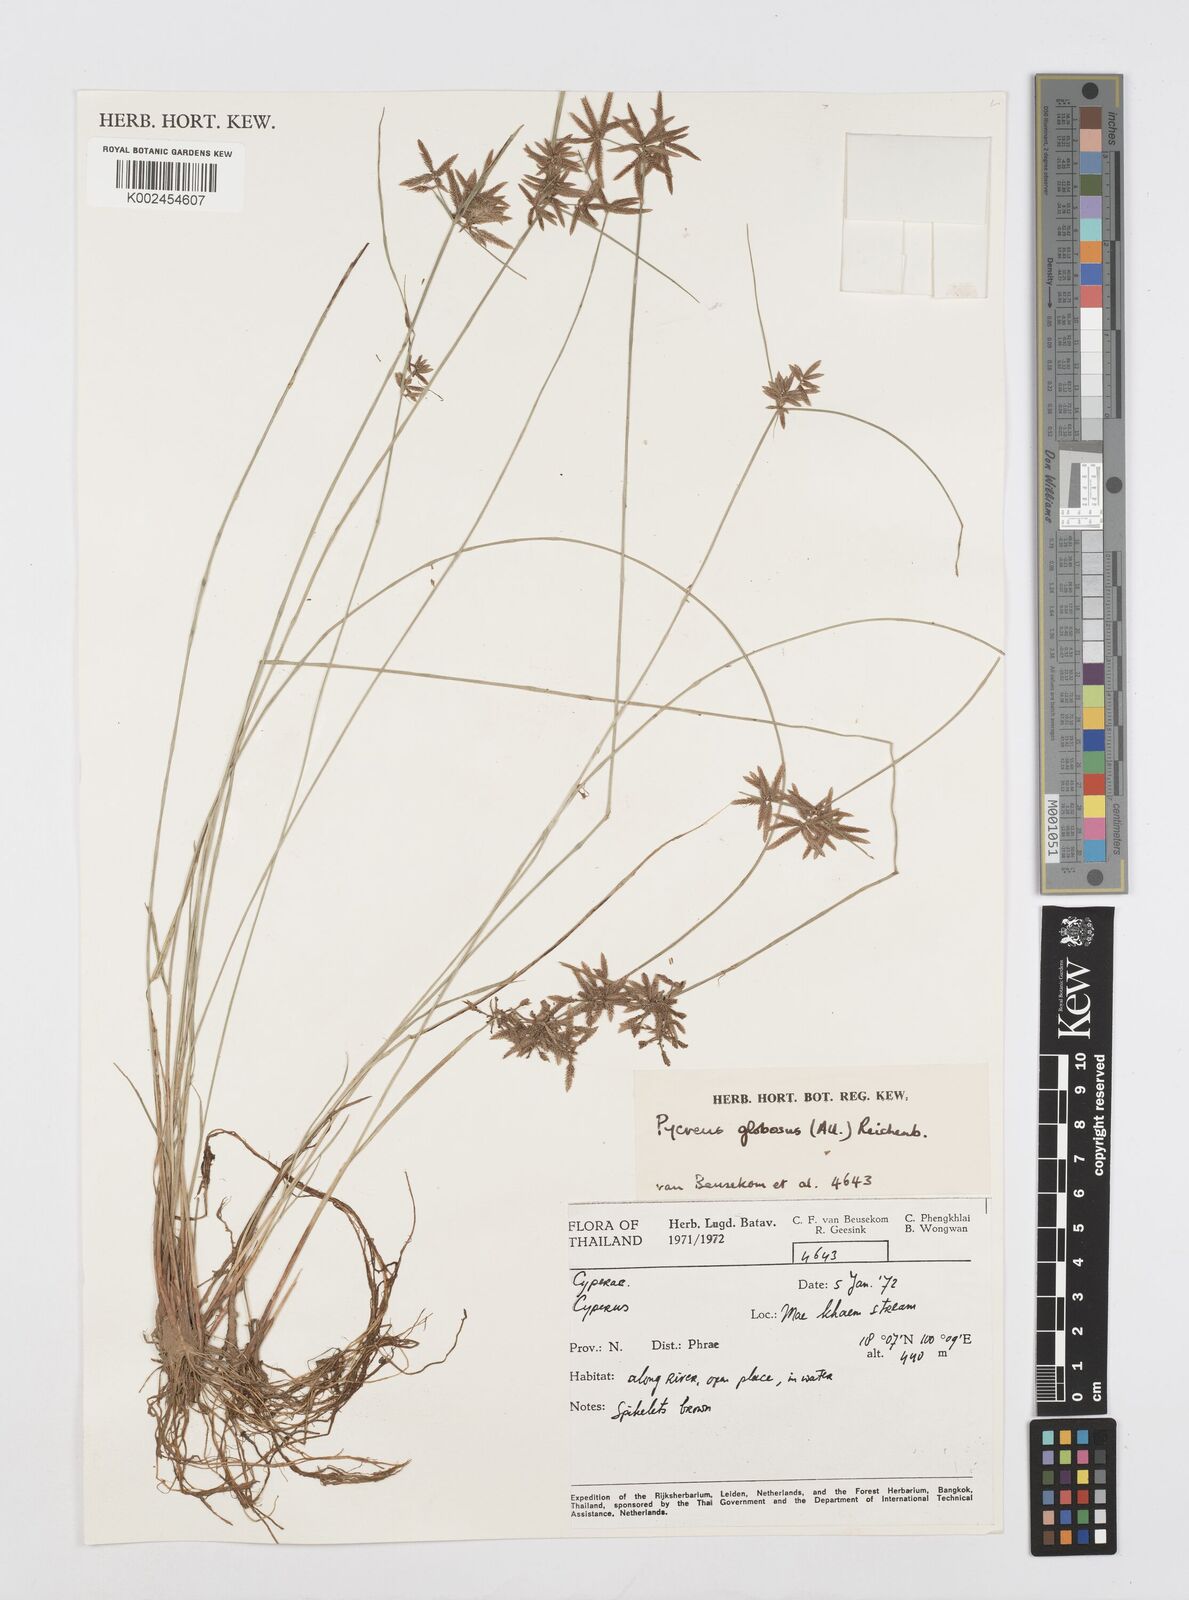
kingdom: Plantae
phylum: Tracheophyta
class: Liliopsida
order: Poales
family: Cyperaceae
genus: Cyperus
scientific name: Cyperus flavidus
